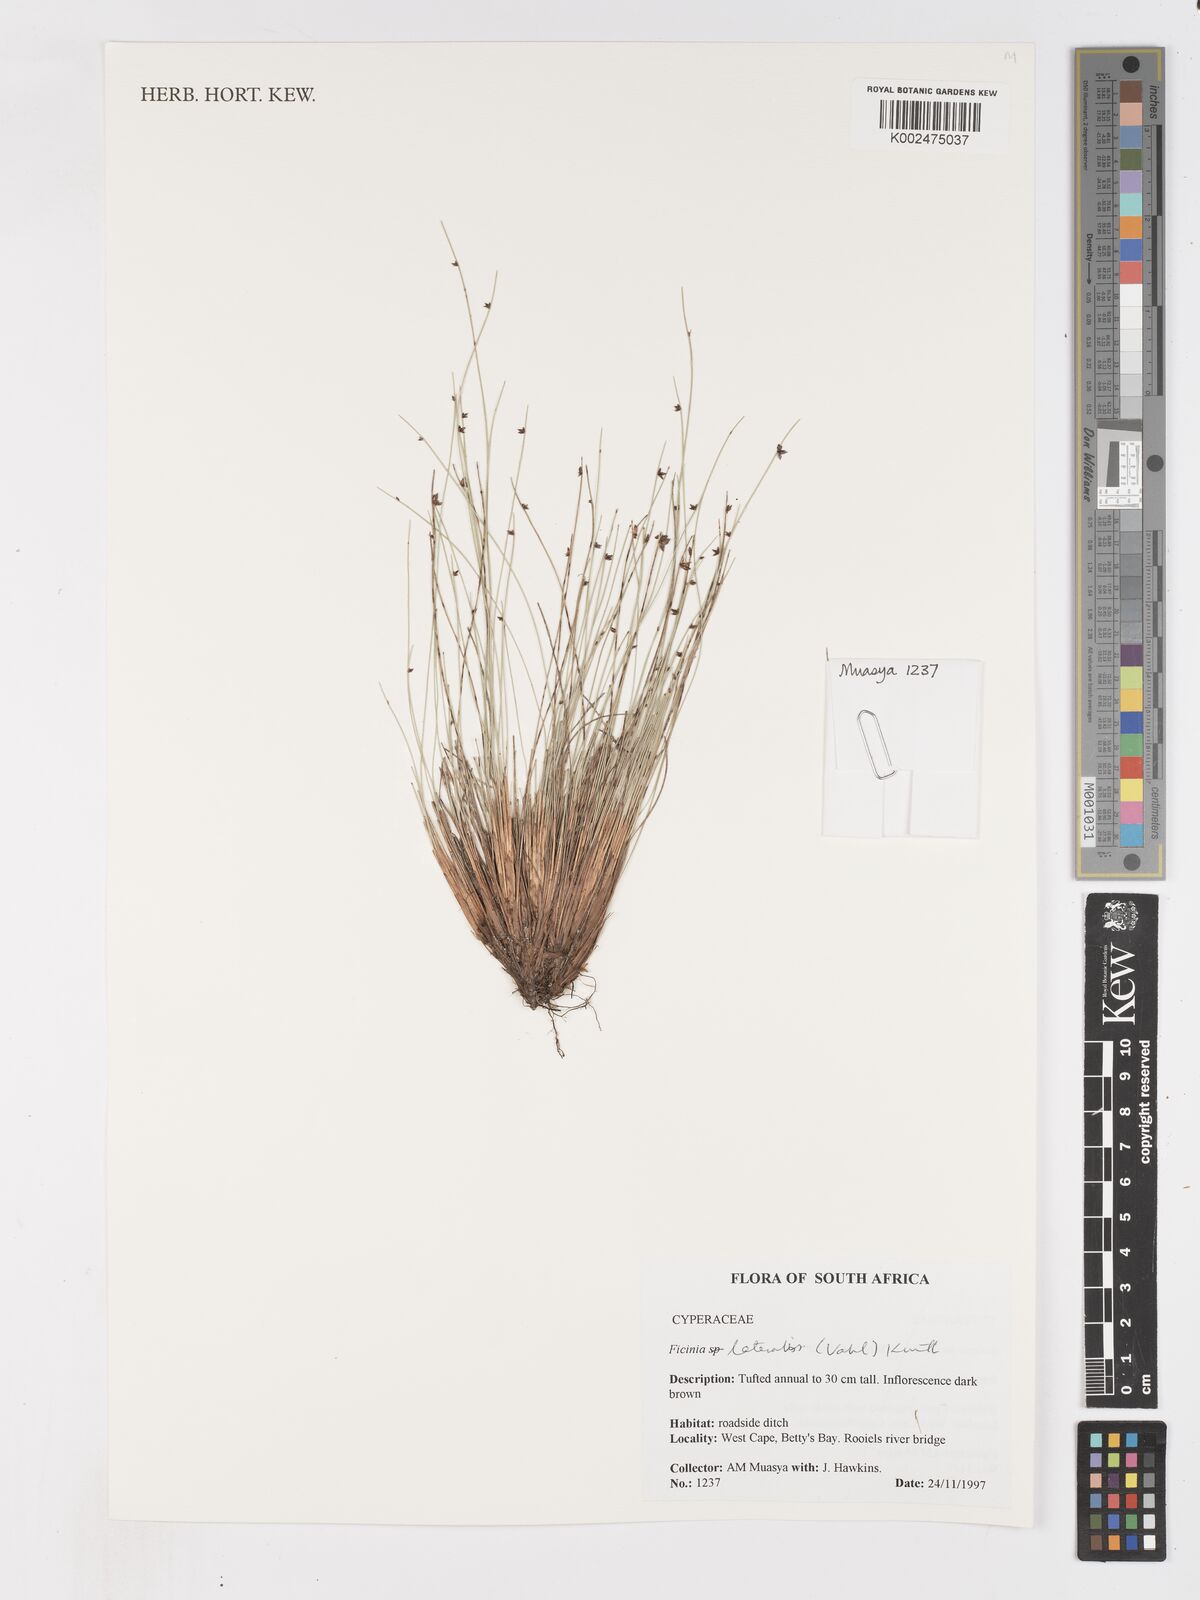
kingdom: Plantae
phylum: Tracheophyta
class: Liliopsida
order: Poales
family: Cyperaceae
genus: Ficinia
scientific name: Ficinia lateralis
